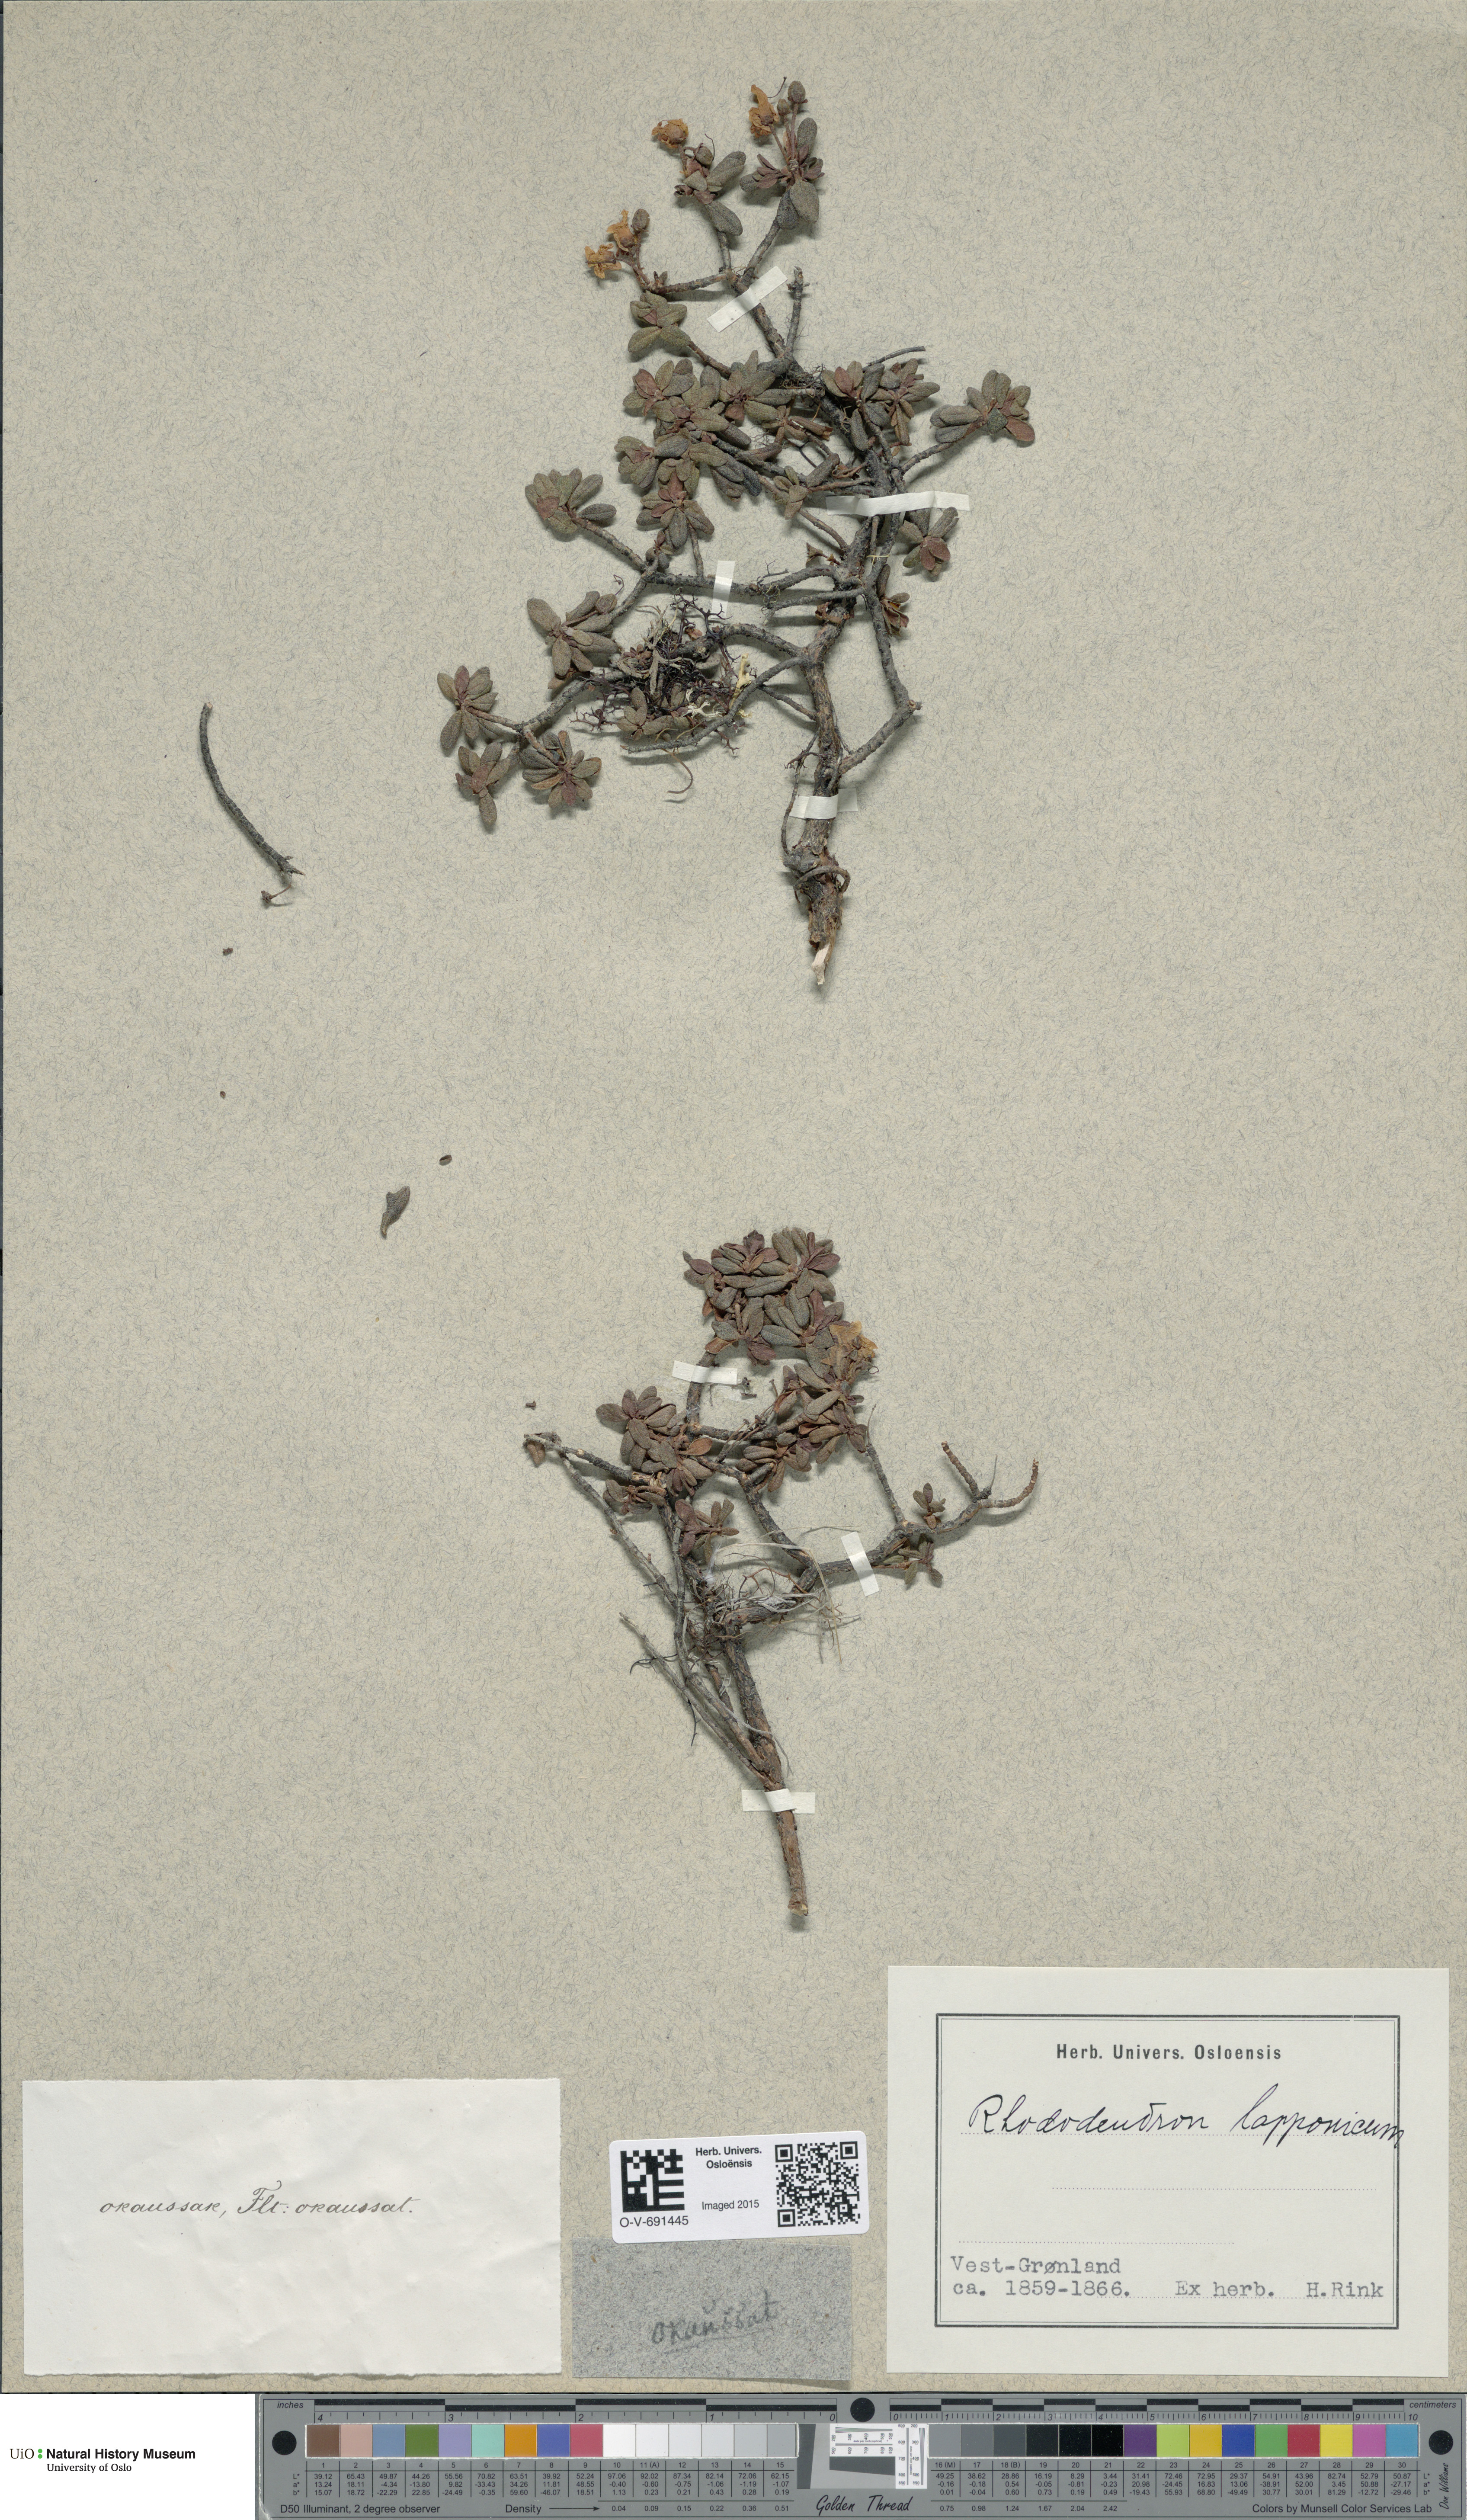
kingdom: Plantae
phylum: Tracheophyta
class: Magnoliopsida
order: Ericales
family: Ericaceae
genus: Rhododendron
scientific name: Rhododendron lapponicum
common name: Lapland rhododendron
